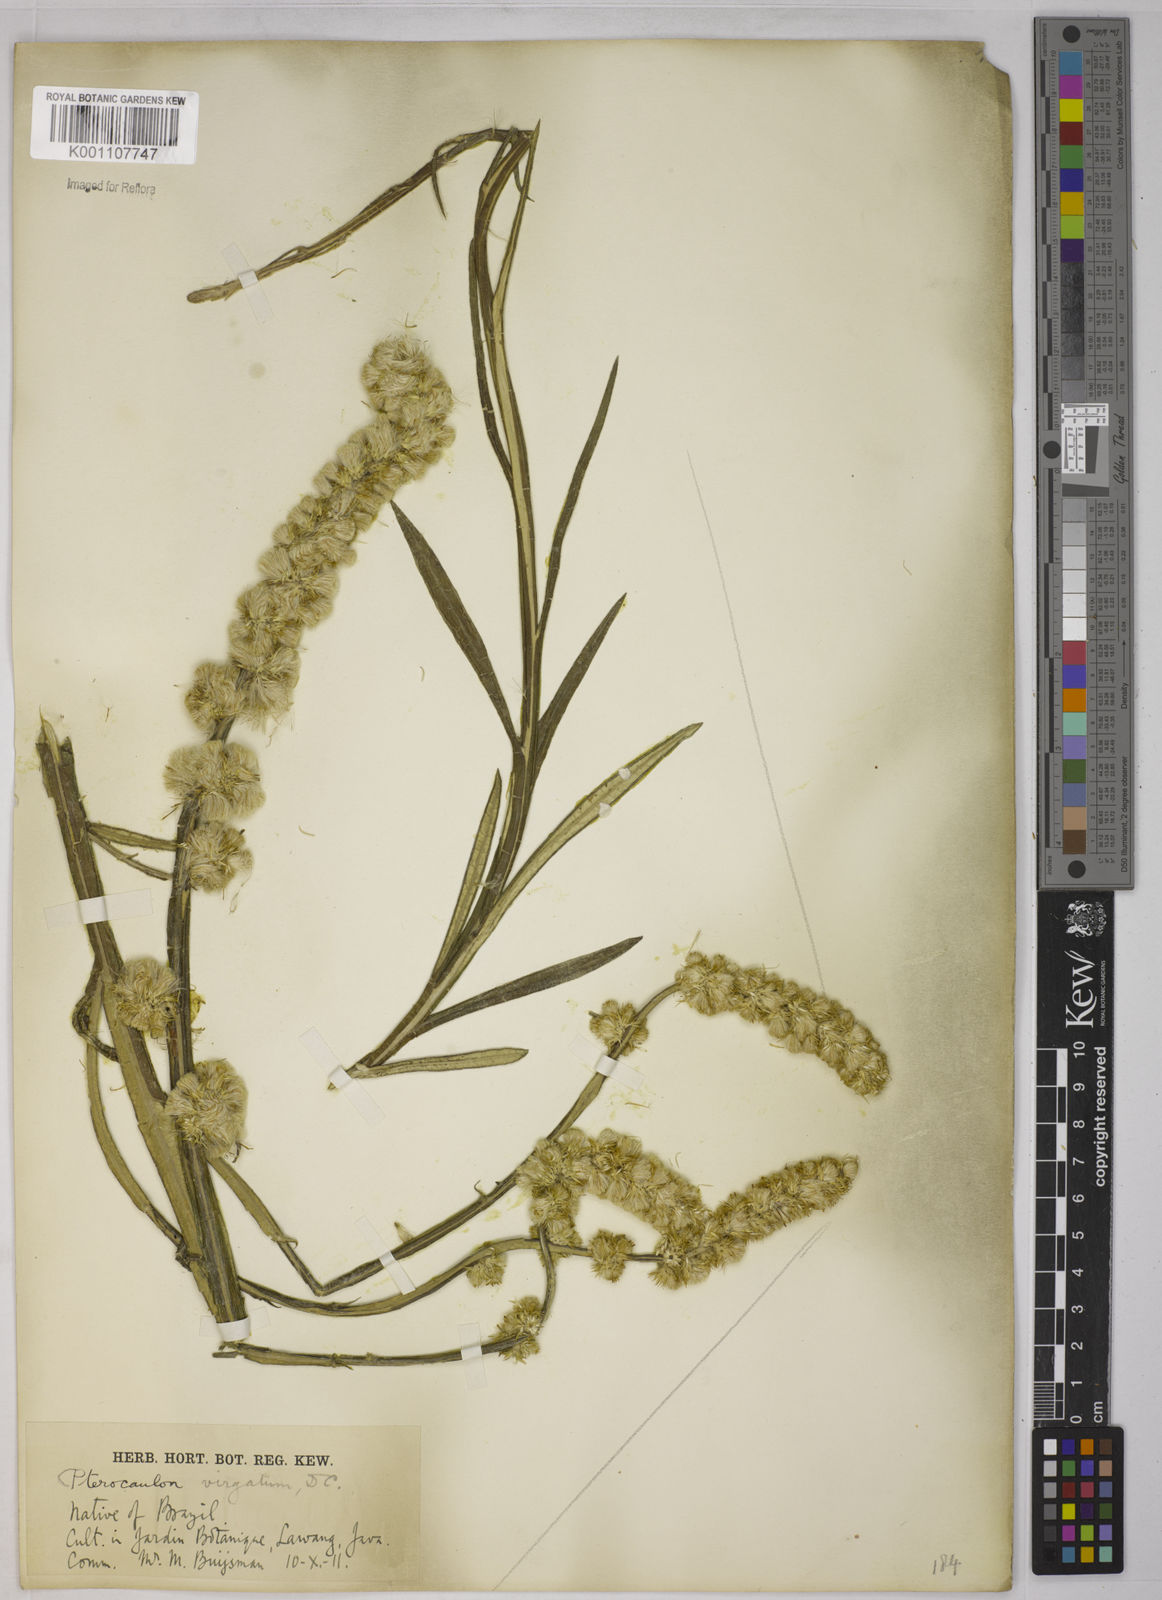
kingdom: Plantae
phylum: Tracheophyta
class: Magnoliopsida
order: Asterales
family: Asteraceae
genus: Pterocaulon
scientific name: Pterocaulon alopecuroides
